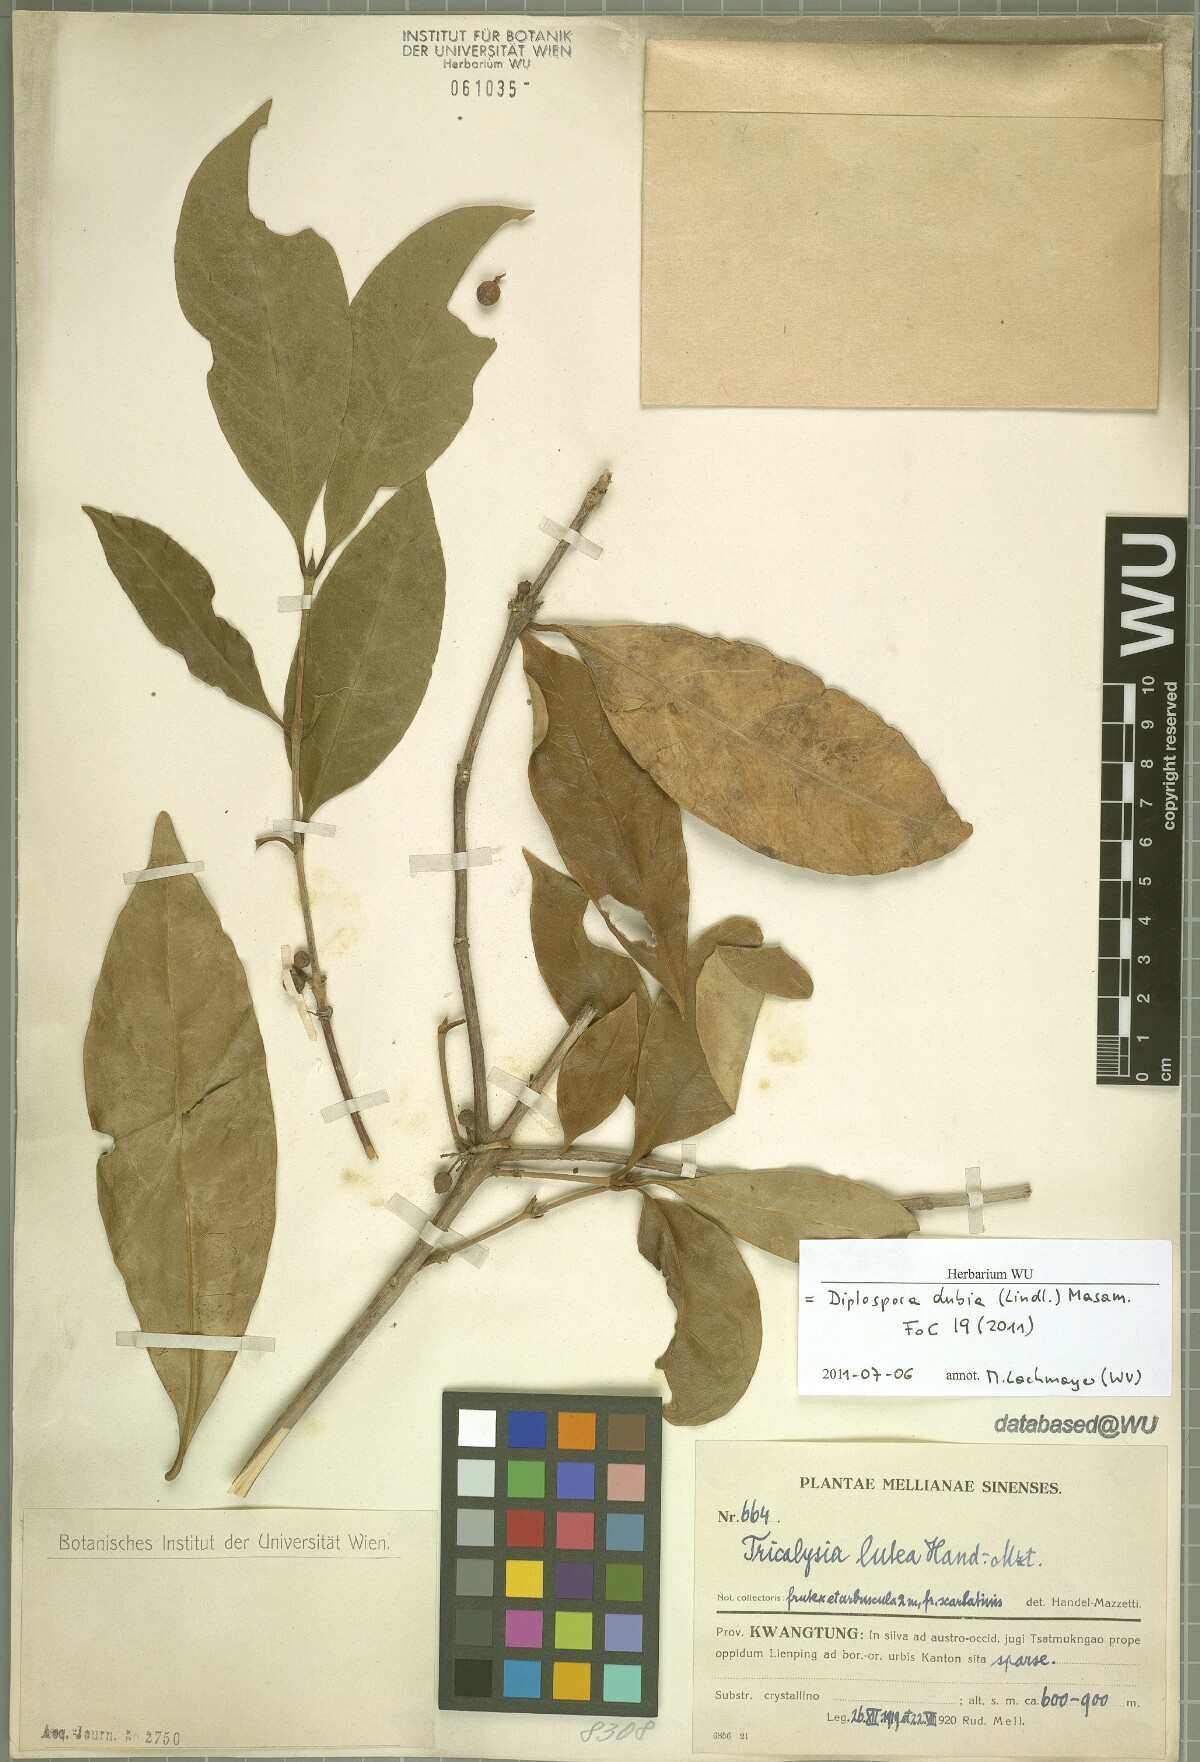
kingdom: Plantae
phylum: Tracheophyta
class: Magnoliopsida
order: Gentianales
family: Rubiaceae
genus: Diplospora
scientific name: Diplospora dubia
